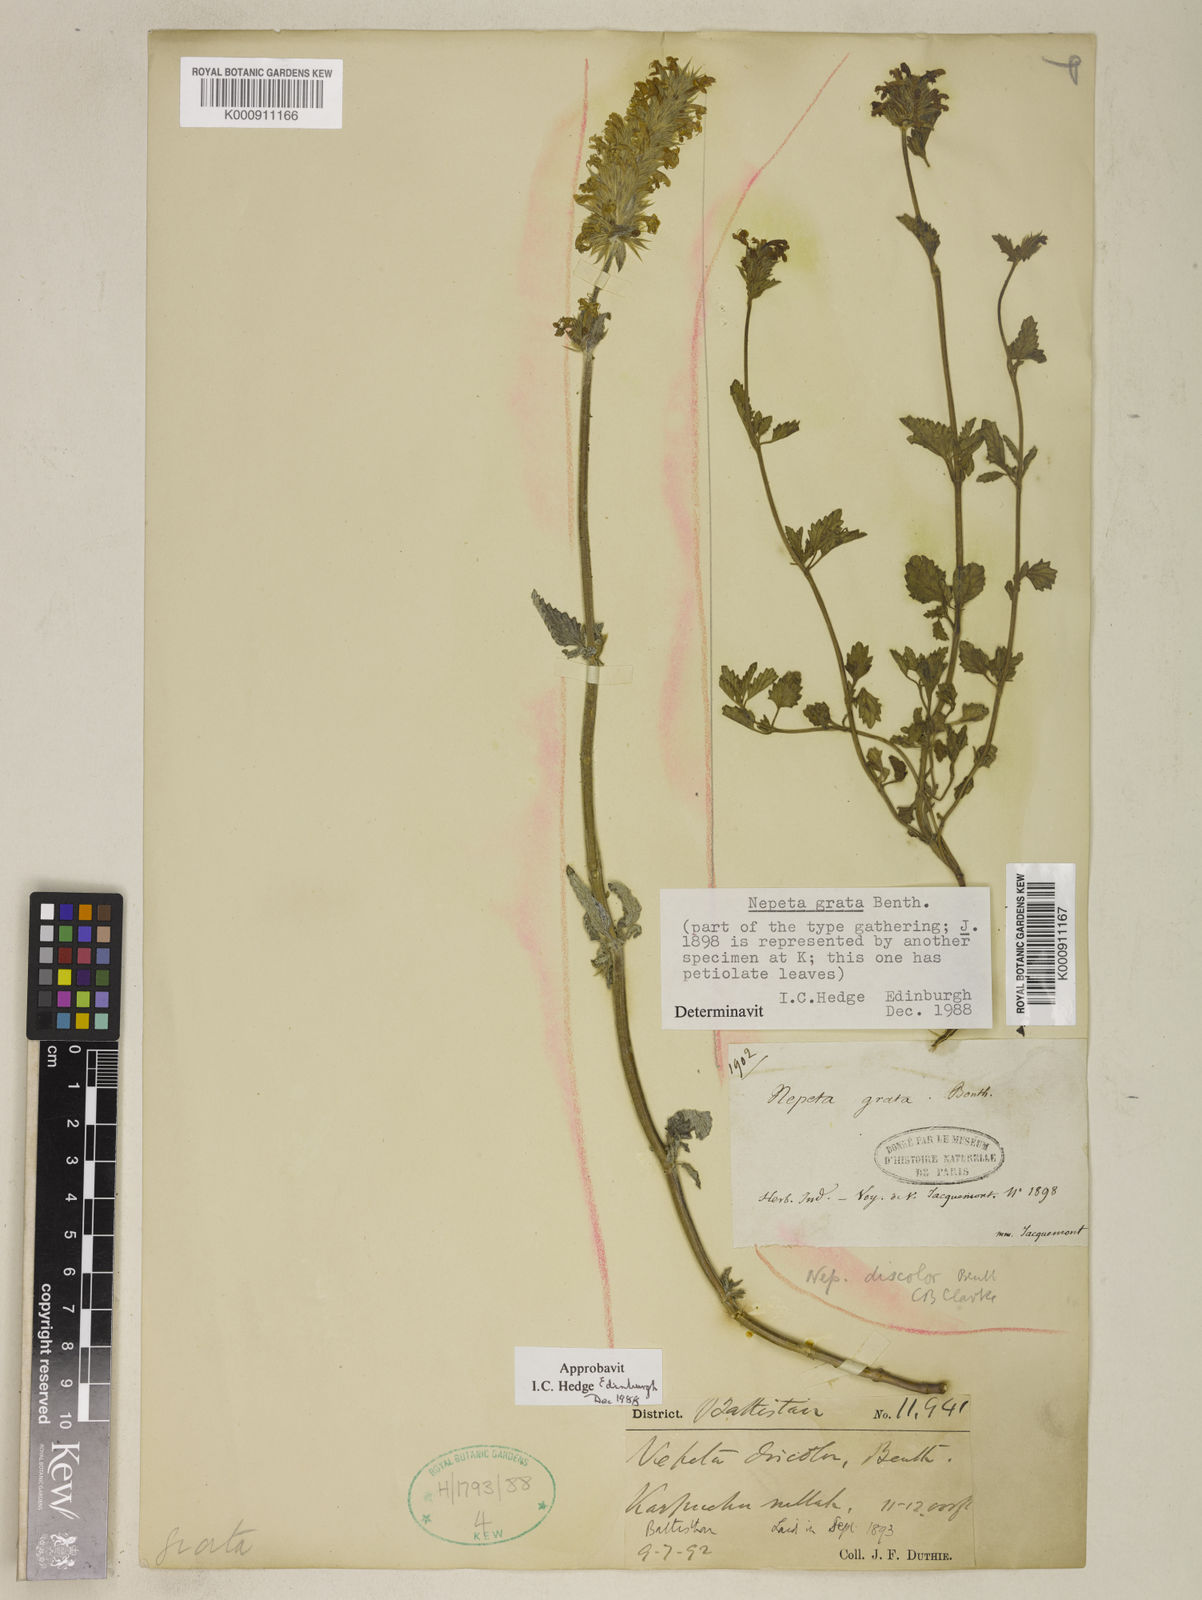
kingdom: Plantae
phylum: Tracheophyta
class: Magnoliopsida
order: Lamiales
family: Lamiaceae
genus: Nepeta
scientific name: Nepeta grata
